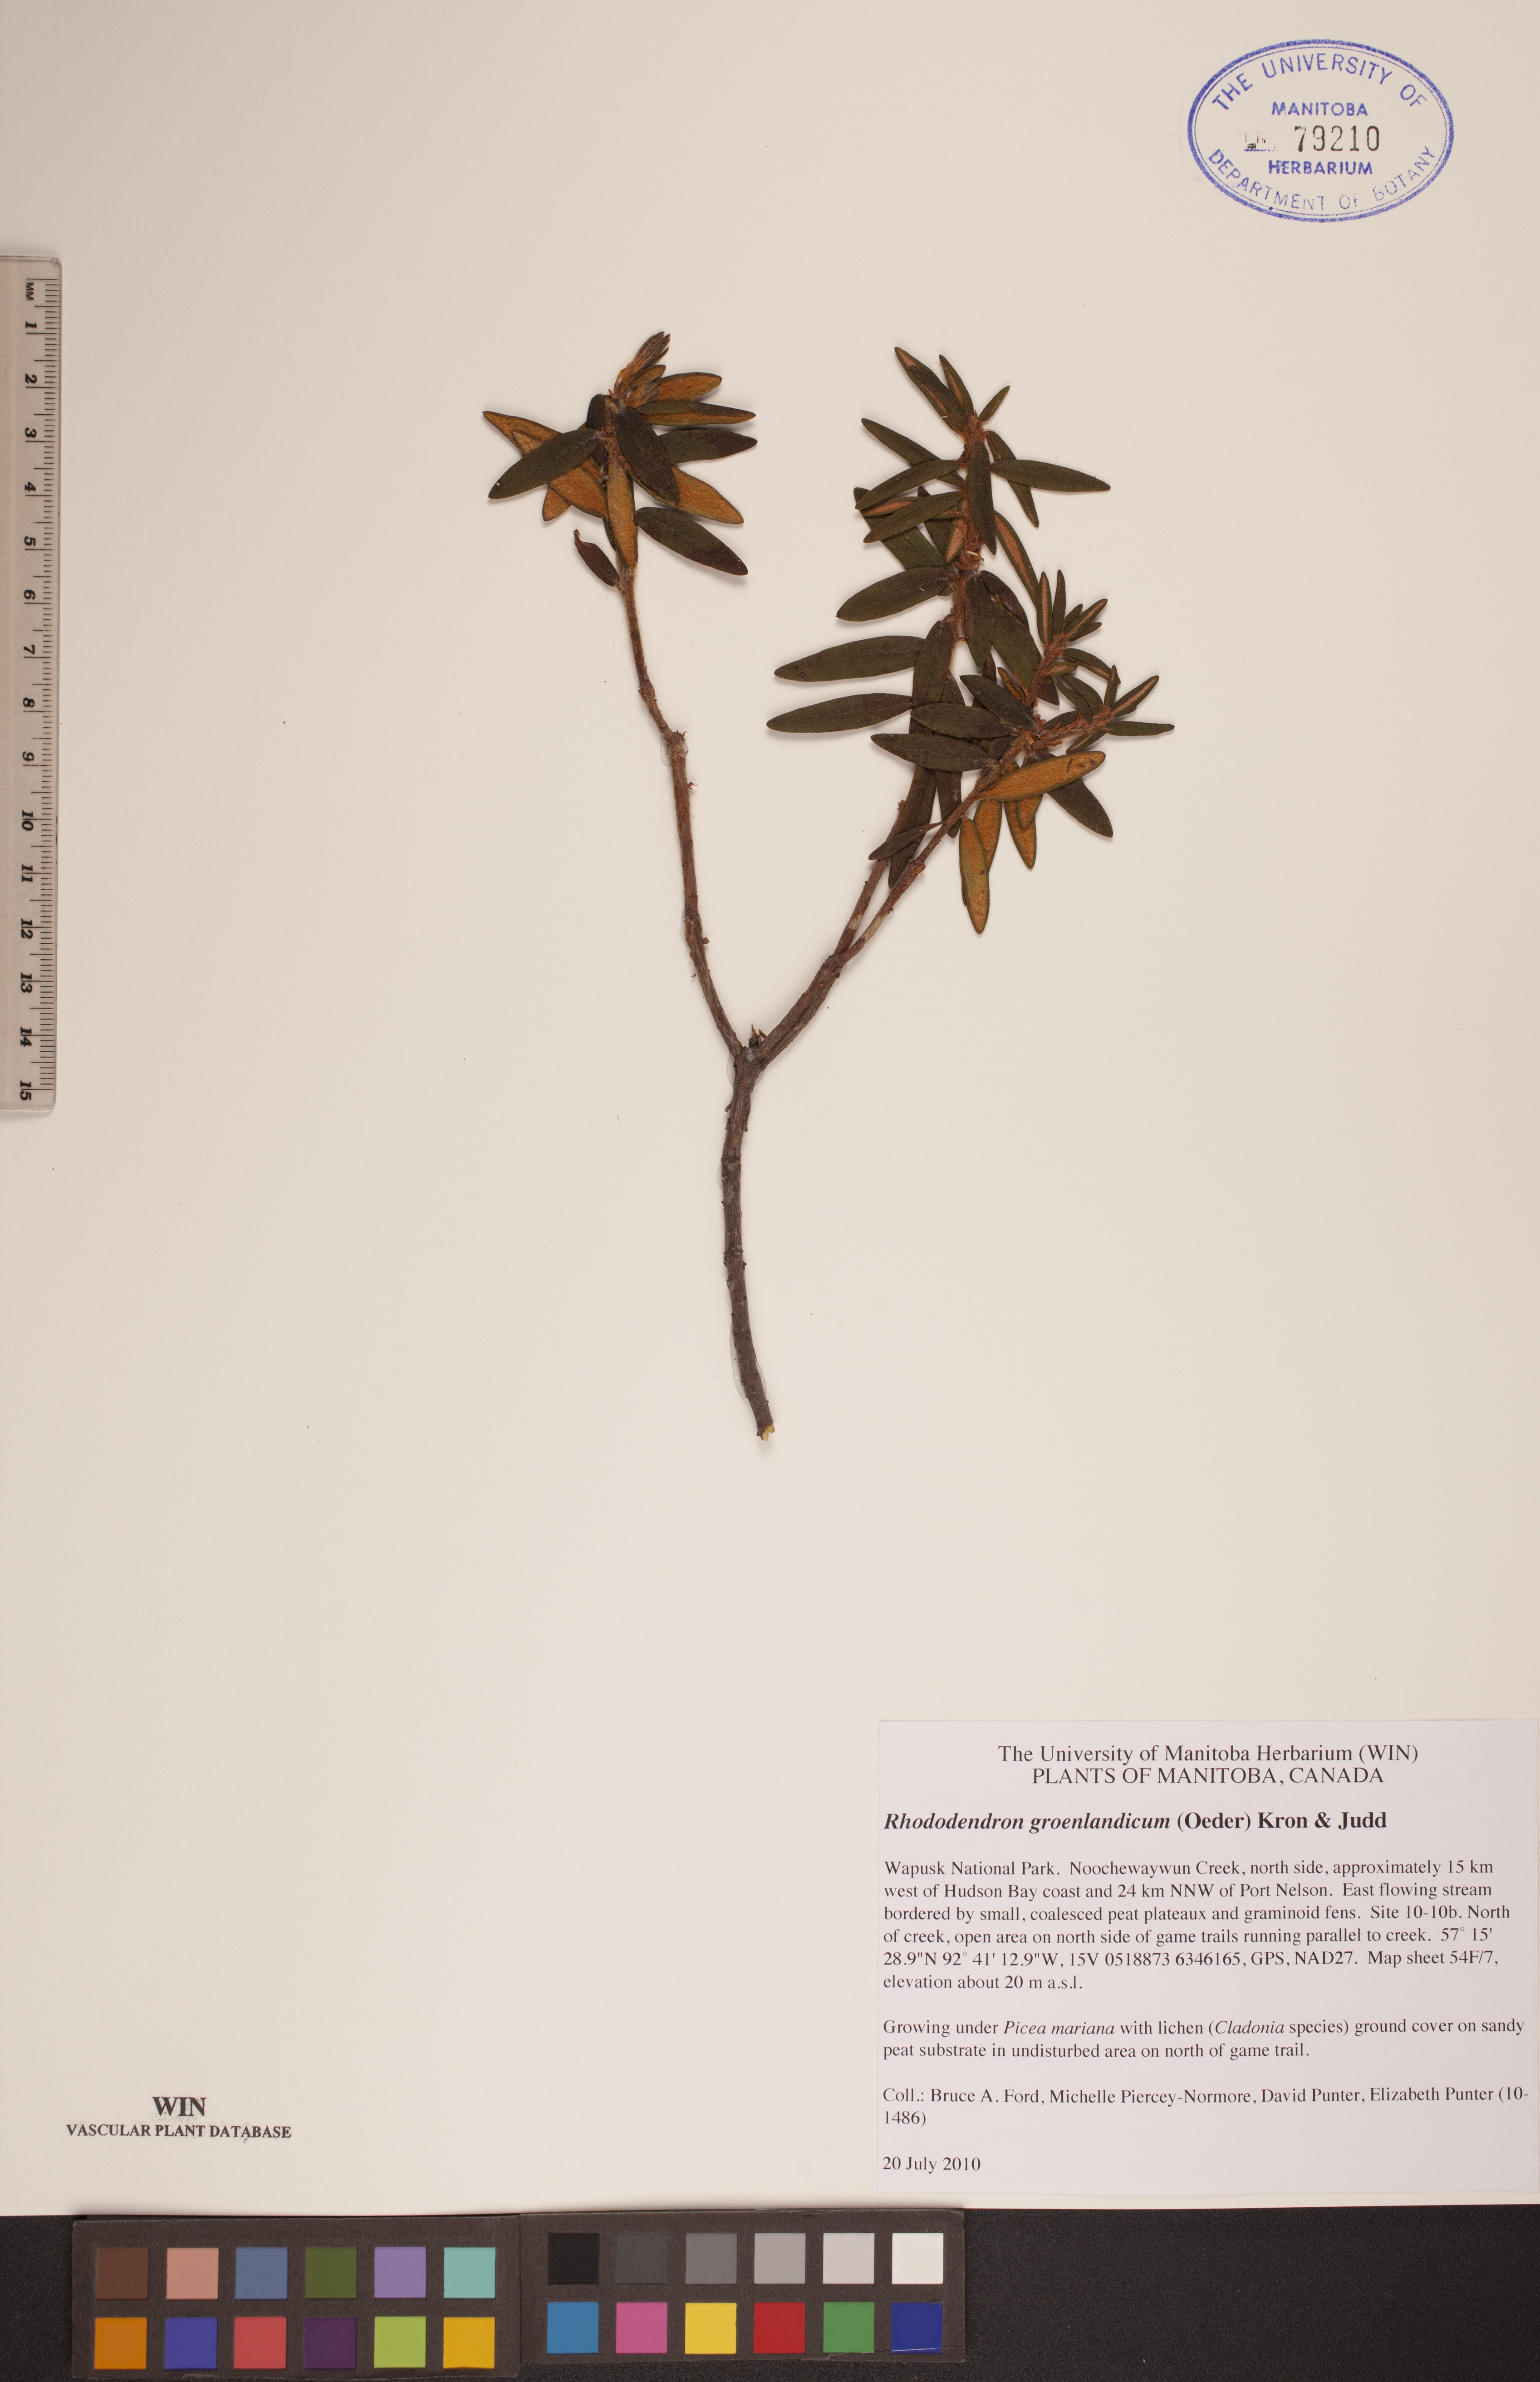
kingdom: Plantae
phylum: Tracheophyta
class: Magnoliopsida
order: Ericales
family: Ericaceae
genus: Rhododendron
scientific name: Rhododendron groenlandicum
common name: Bog labrador tea
